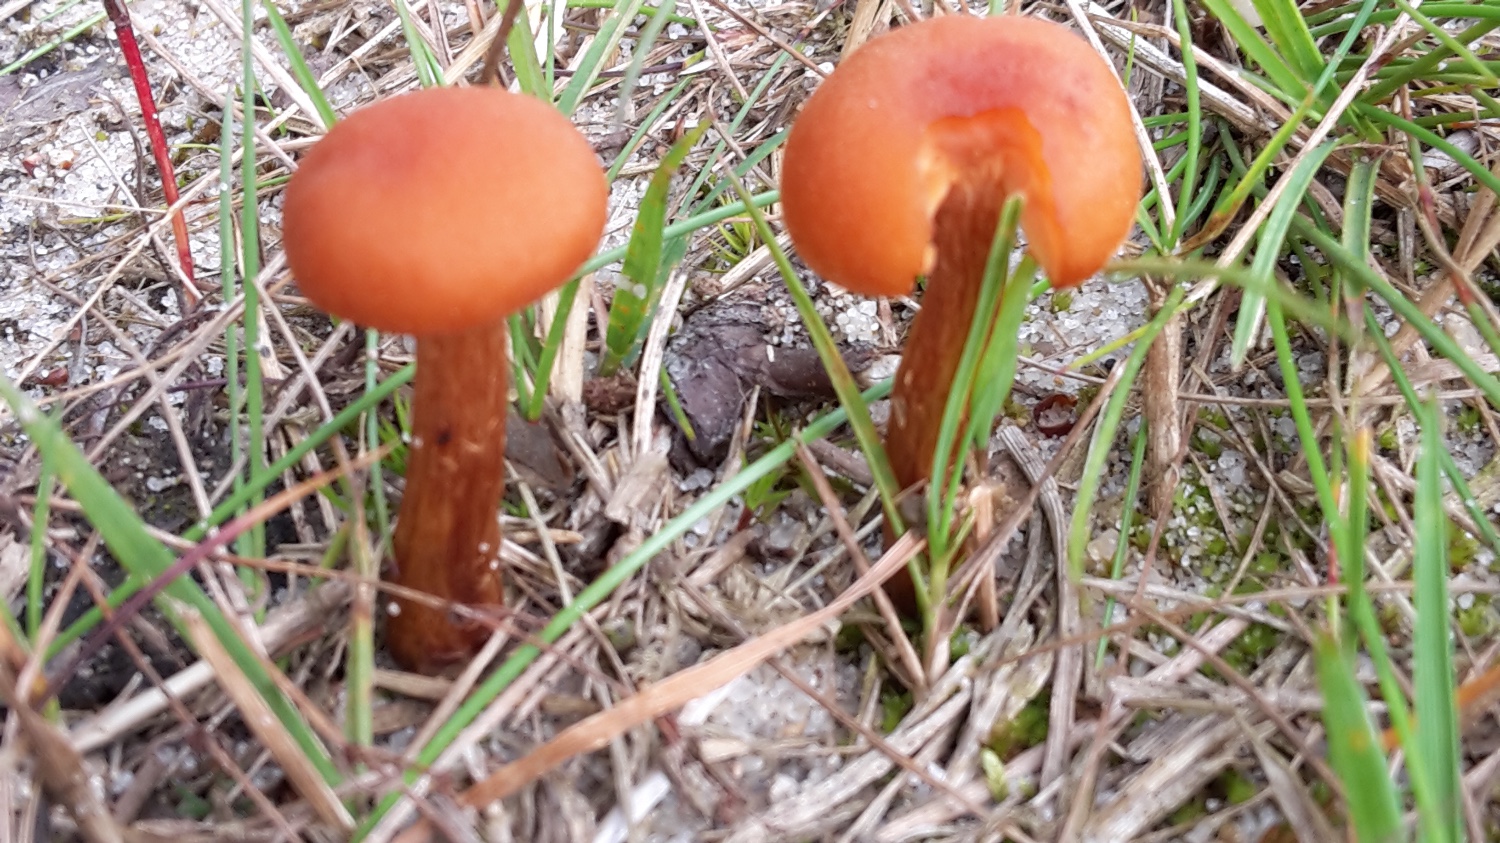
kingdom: Fungi
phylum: Basidiomycota
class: Agaricomycetes
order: Agaricales
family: Hydnangiaceae
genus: Laccaria
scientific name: Laccaria laccata
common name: rød ametysthat
